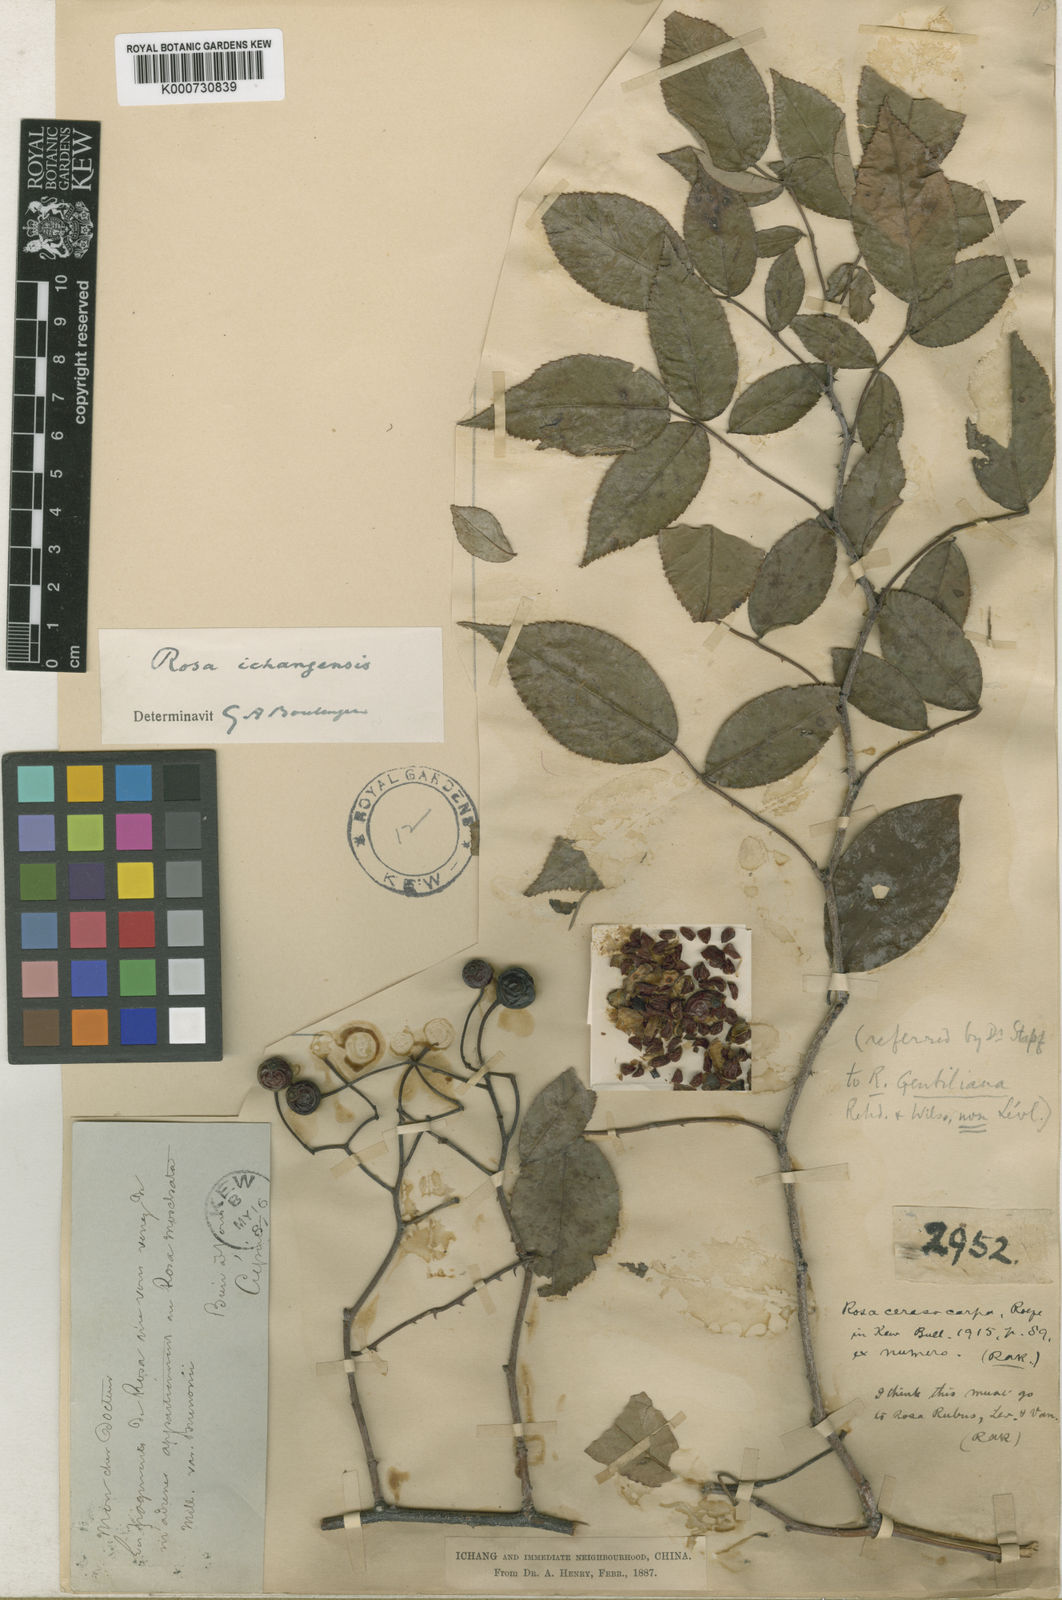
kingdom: Plantae
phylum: Tracheophyta
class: Magnoliopsida
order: Rosales
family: Rosaceae
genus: Rosa
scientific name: Rosa ichangensis
